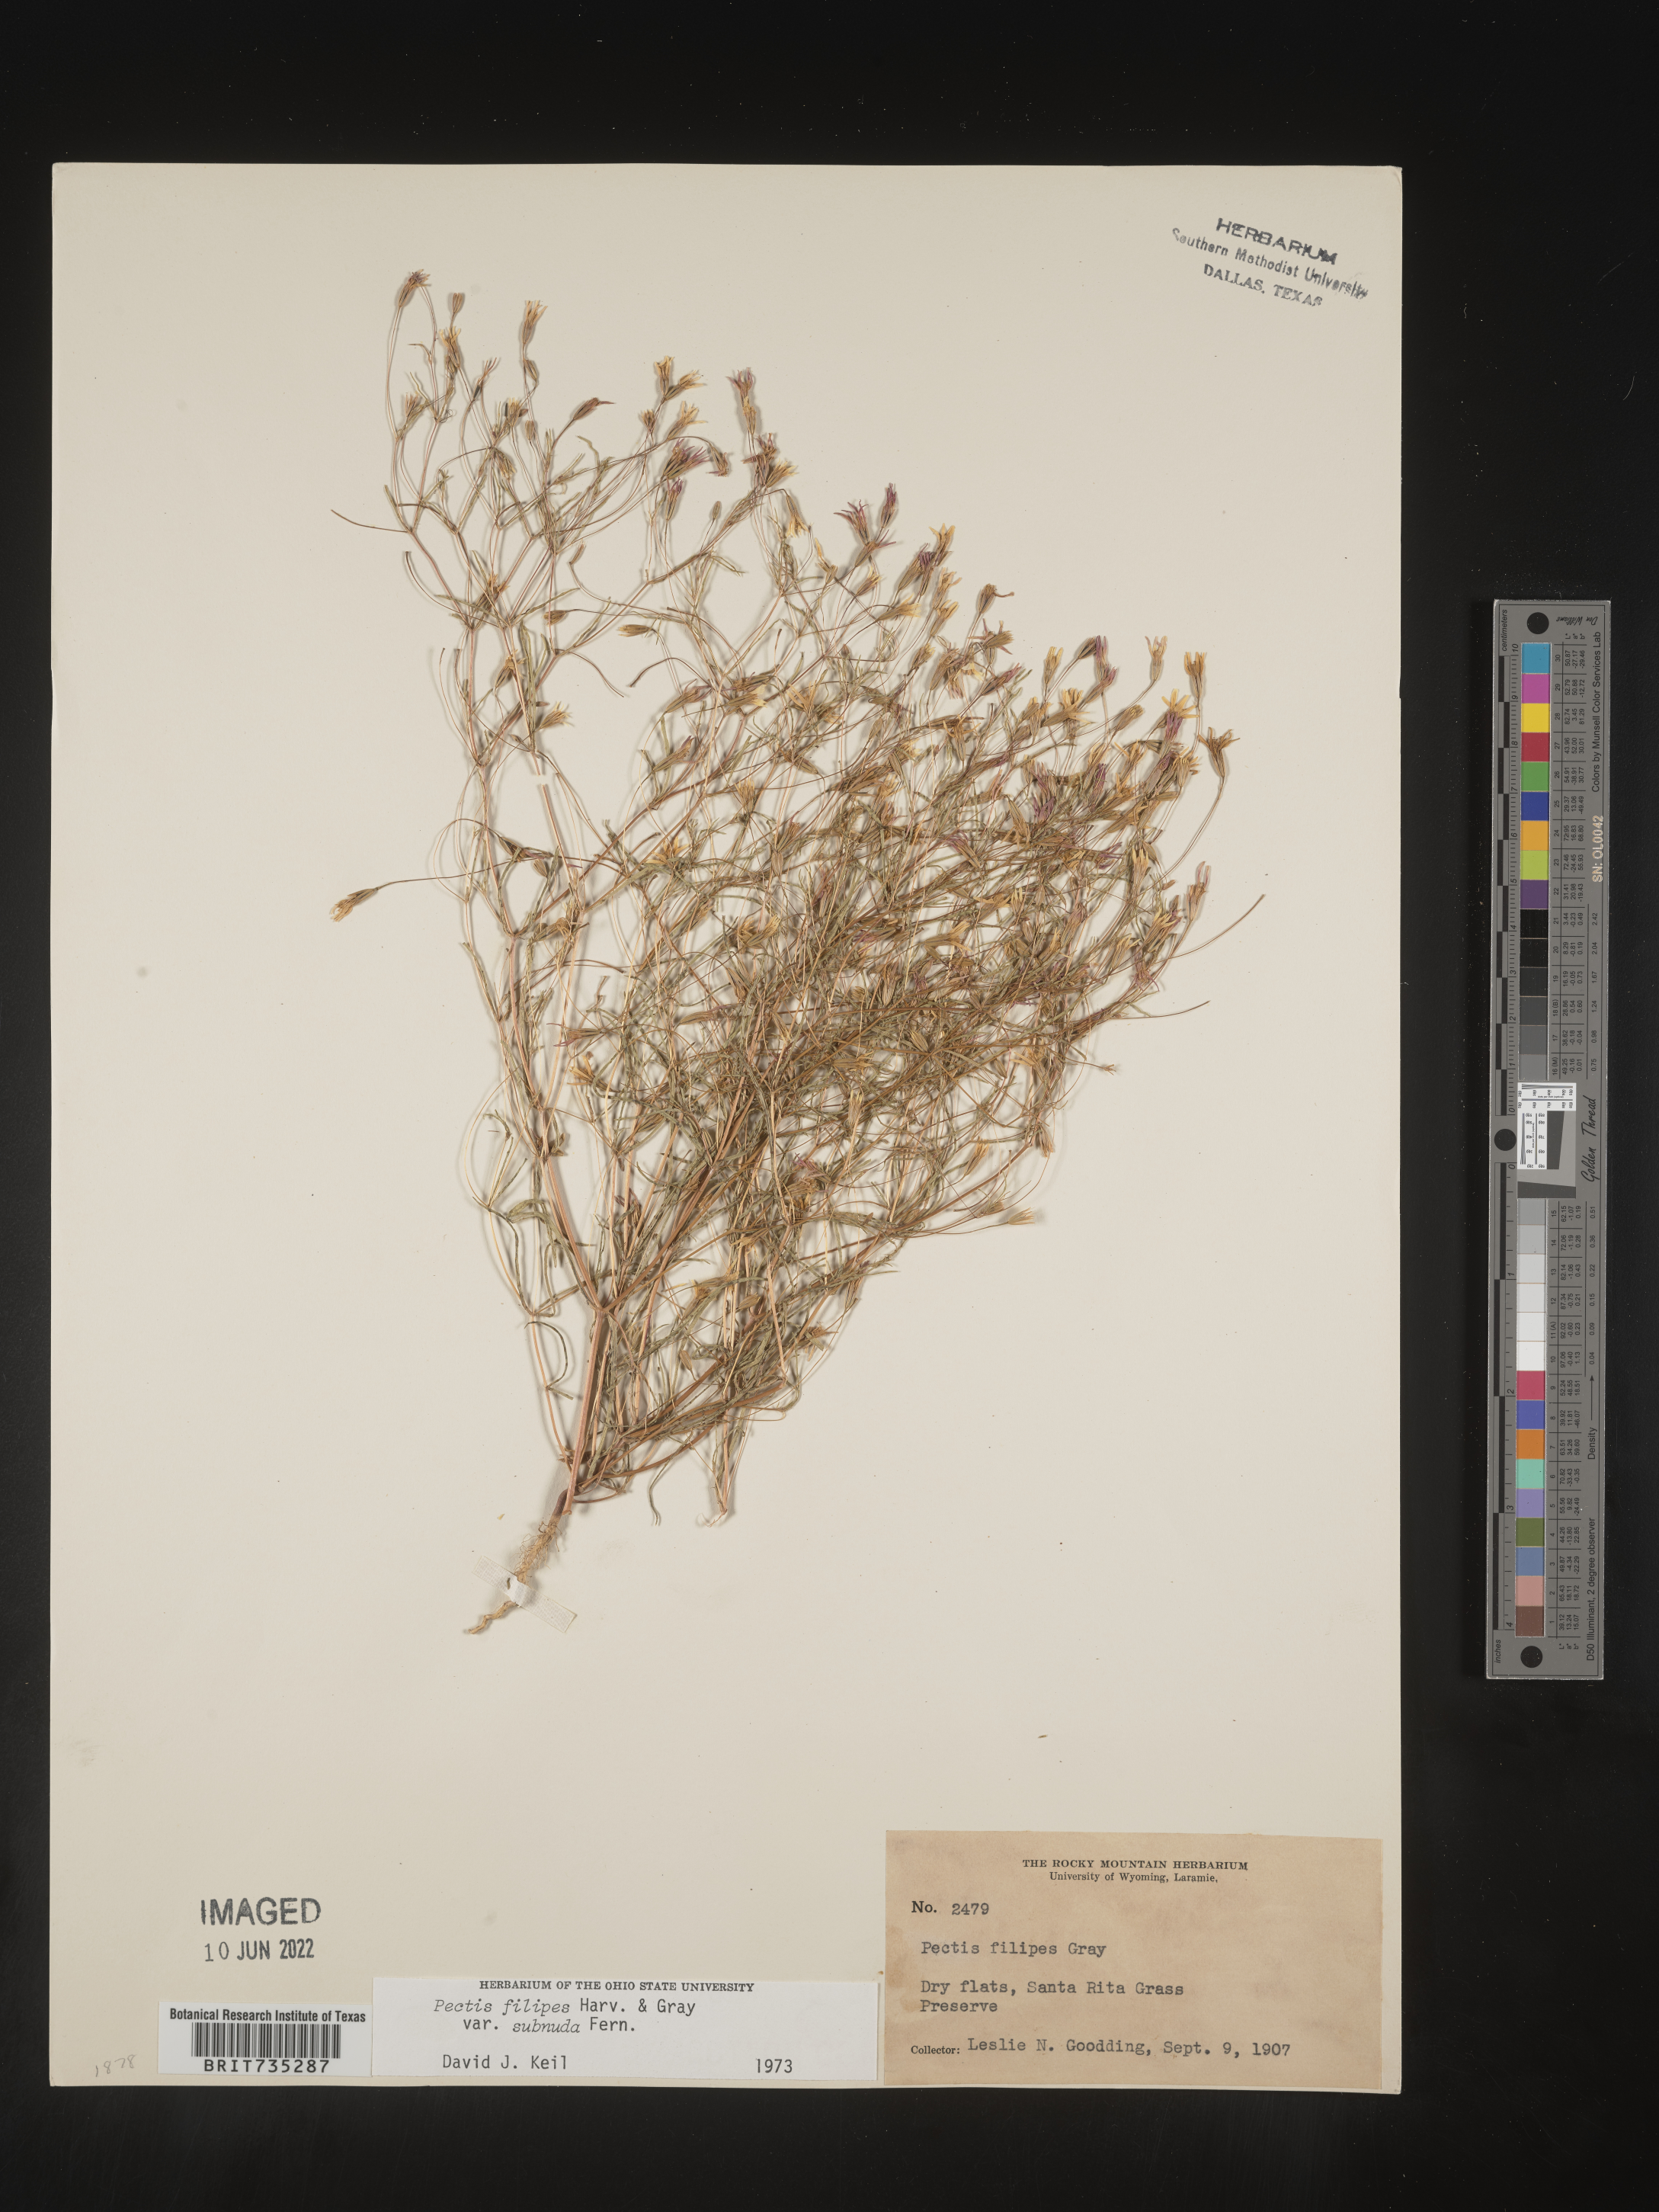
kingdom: Plantae
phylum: Tracheophyta
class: Magnoliopsida
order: Asterales
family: Asteraceae
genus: Pectis
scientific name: Pectis filipes
